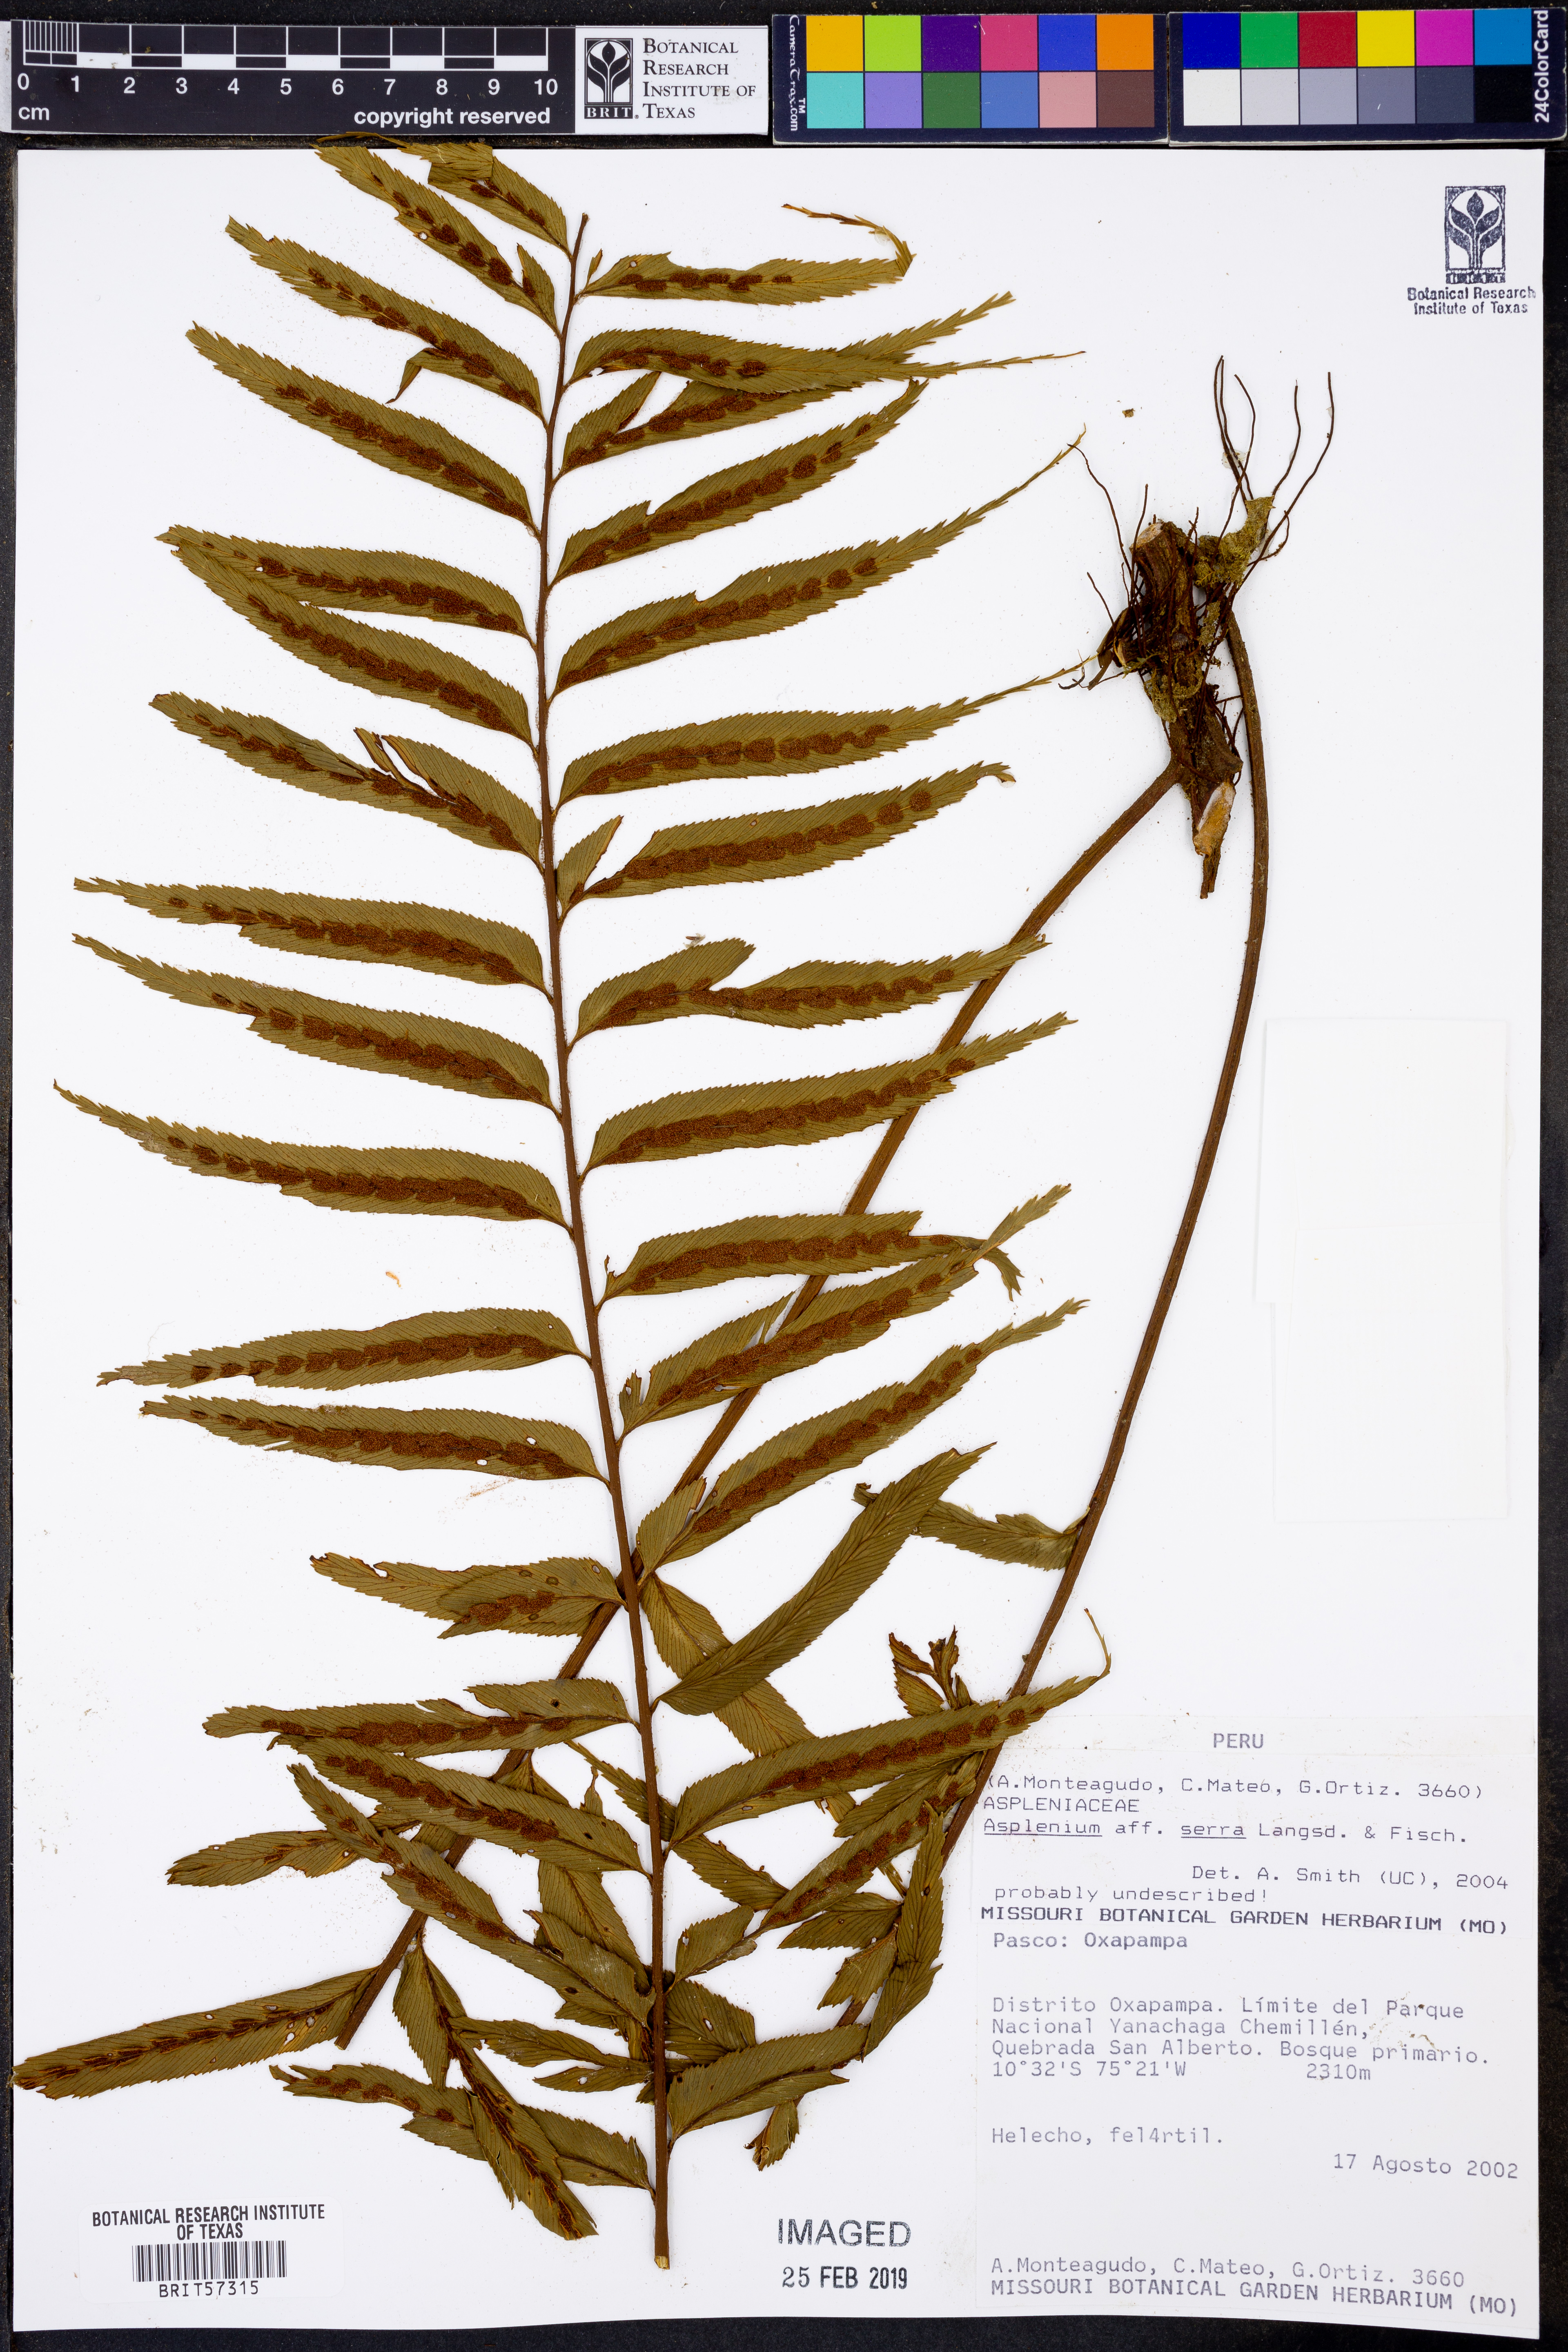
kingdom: Plantae
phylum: Tracheophyta
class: Polypodiopsida
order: Polypodiales
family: Aspleniaceae
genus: Asplenium
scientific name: Asplenium serra
